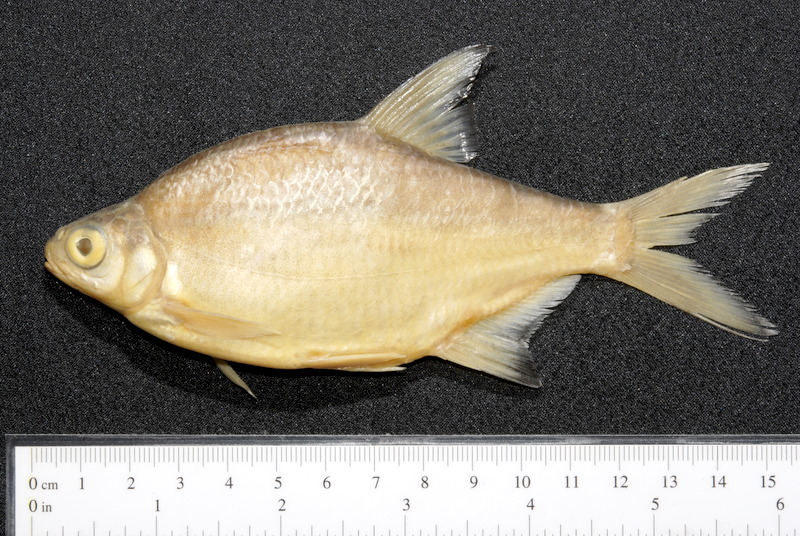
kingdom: Animalia
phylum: Chordata
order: Cypriniformes
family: Cyprinidae
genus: Blicca
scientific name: Blicca bjoerkna
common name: White bream
